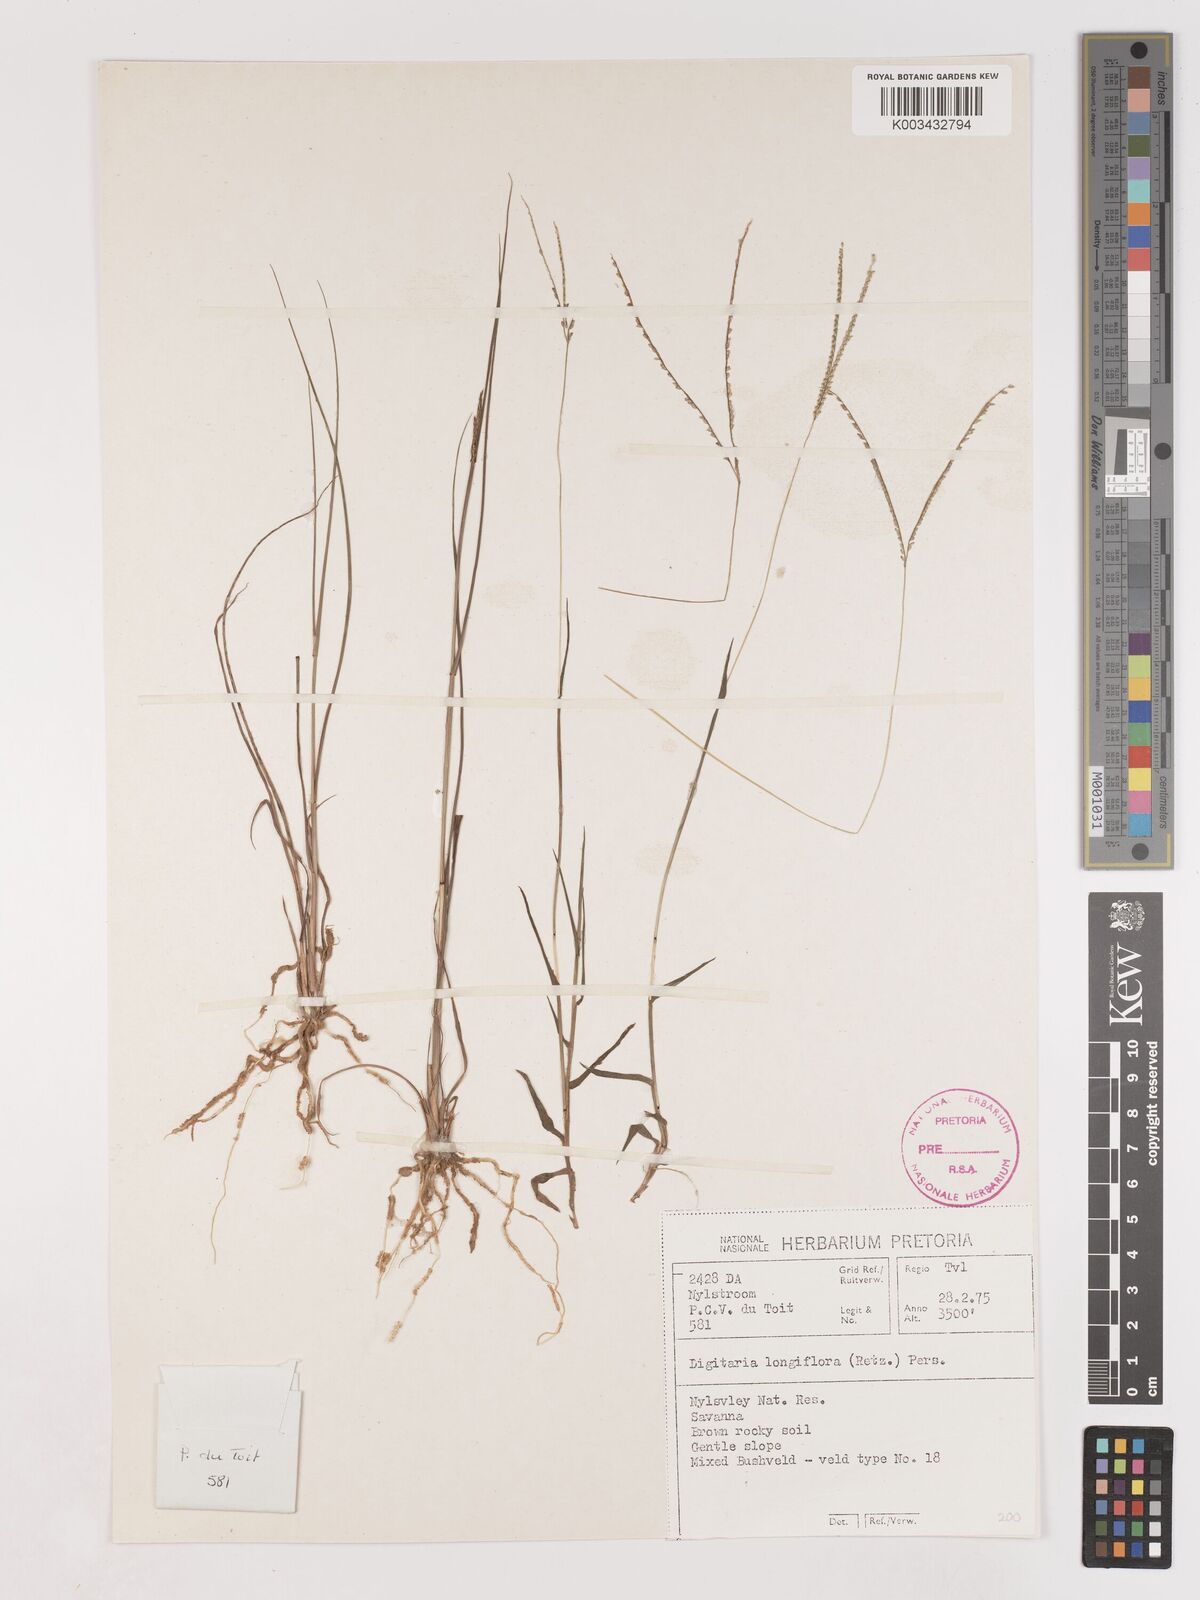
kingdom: Plantae
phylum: Tracheophyta
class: Liliopsida
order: Poales
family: Poaceae
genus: Digitaria
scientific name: Digitaria longiflora
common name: Wire crabgrass
